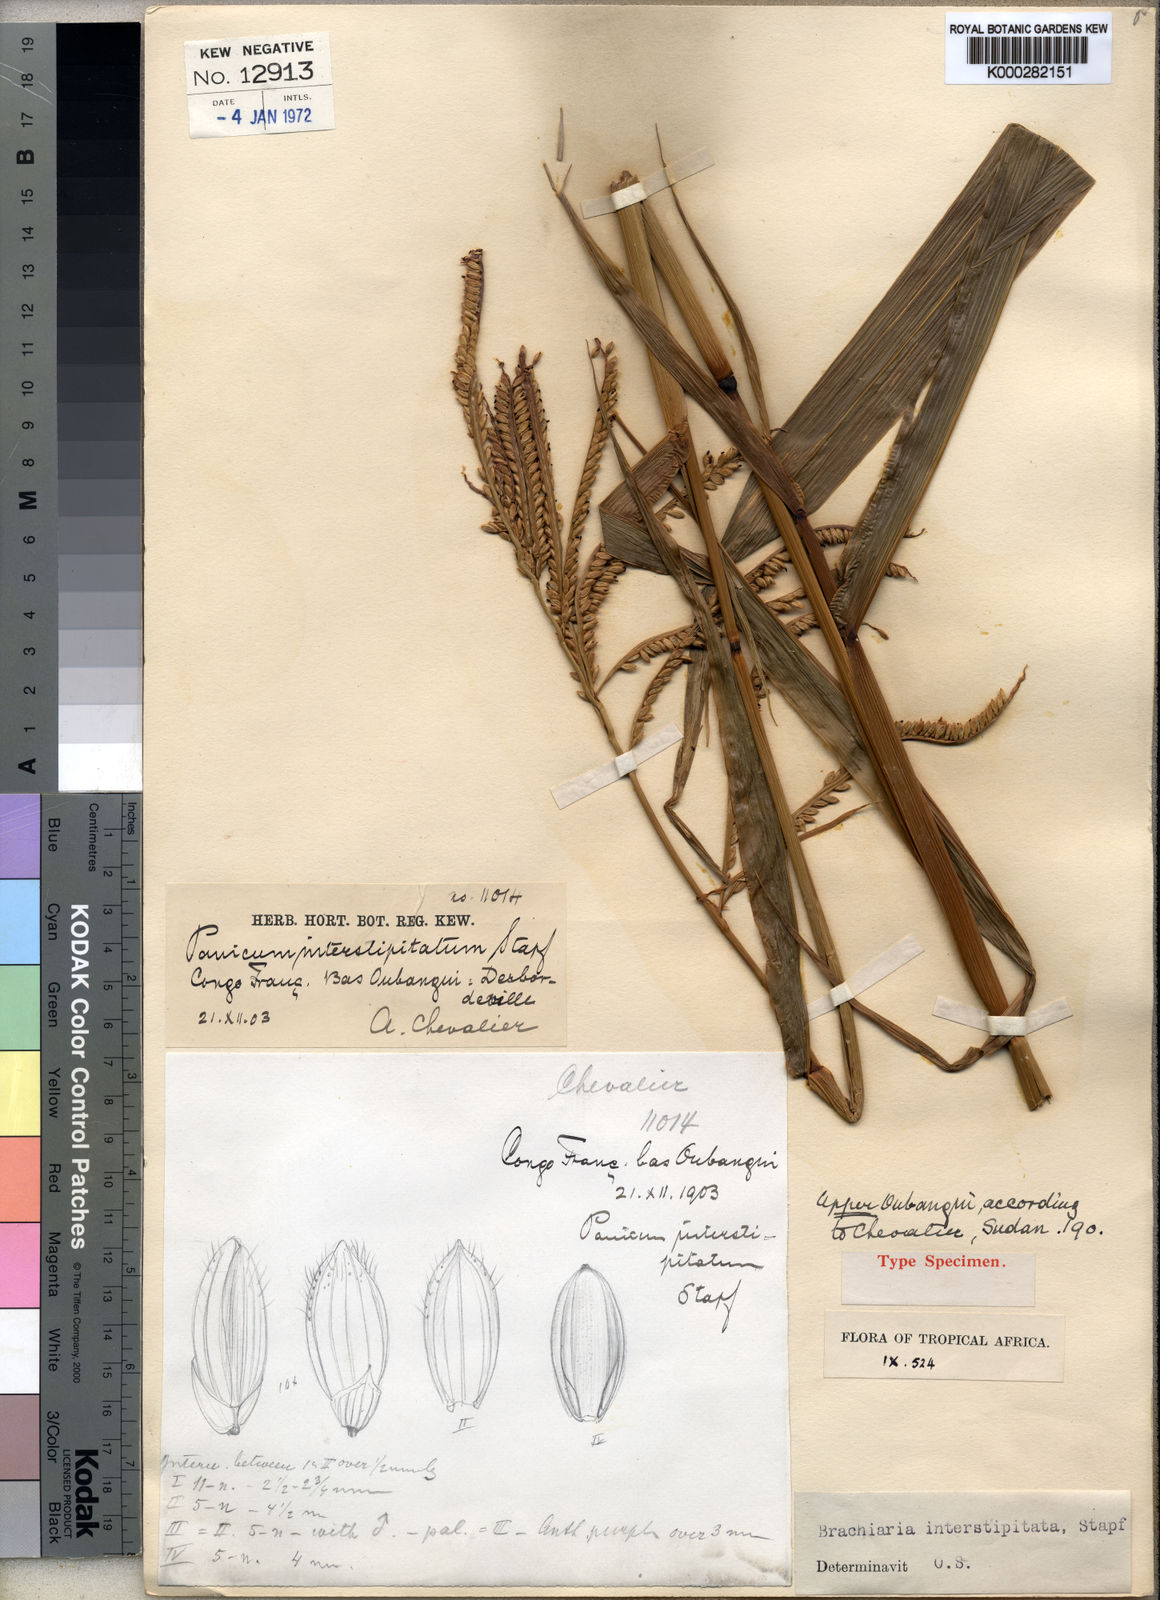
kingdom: Plantae
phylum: Tracheophyta
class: Liliopsida
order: Poales
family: Poaceae
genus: Urochloa
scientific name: Urochloa oligobrachiata
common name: Weak signalgrass
